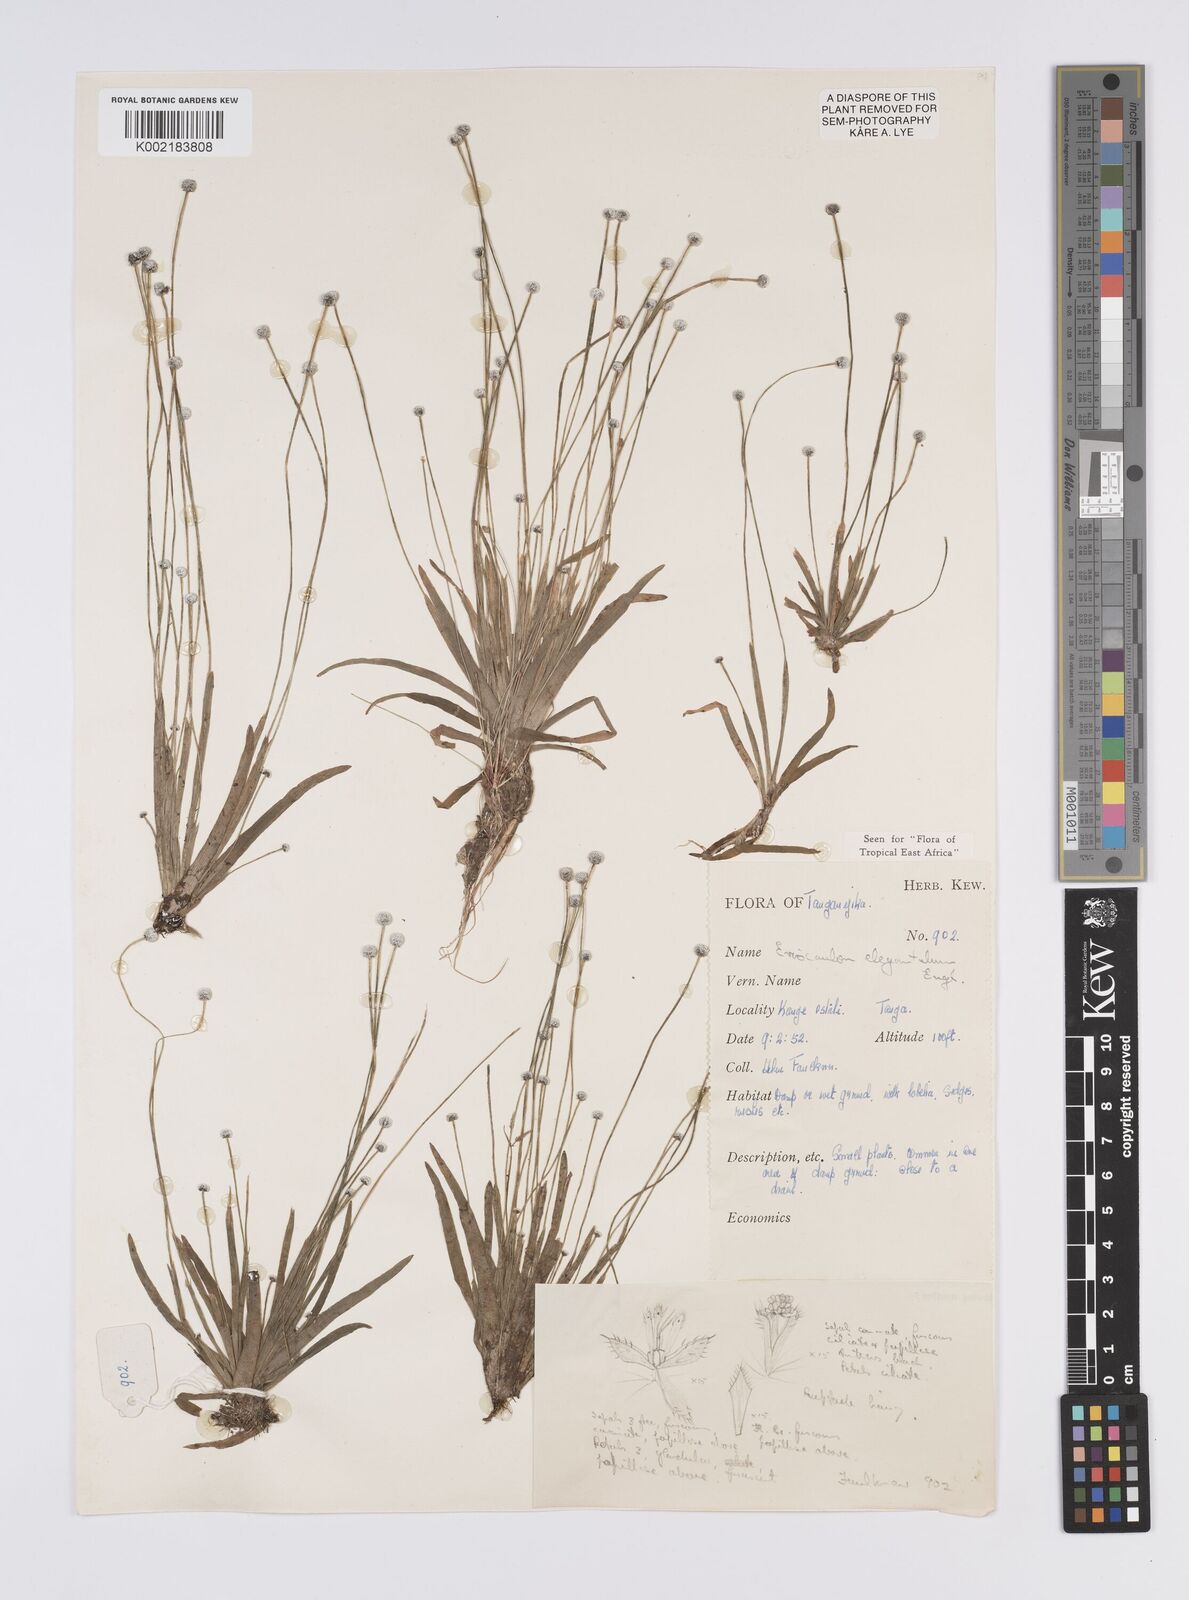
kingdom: Plantae
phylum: Tracheophyta
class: Liliopsida
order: Poales
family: Eriocaulaceae
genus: Eriocaulon
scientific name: Eriocaulon elegantulum
